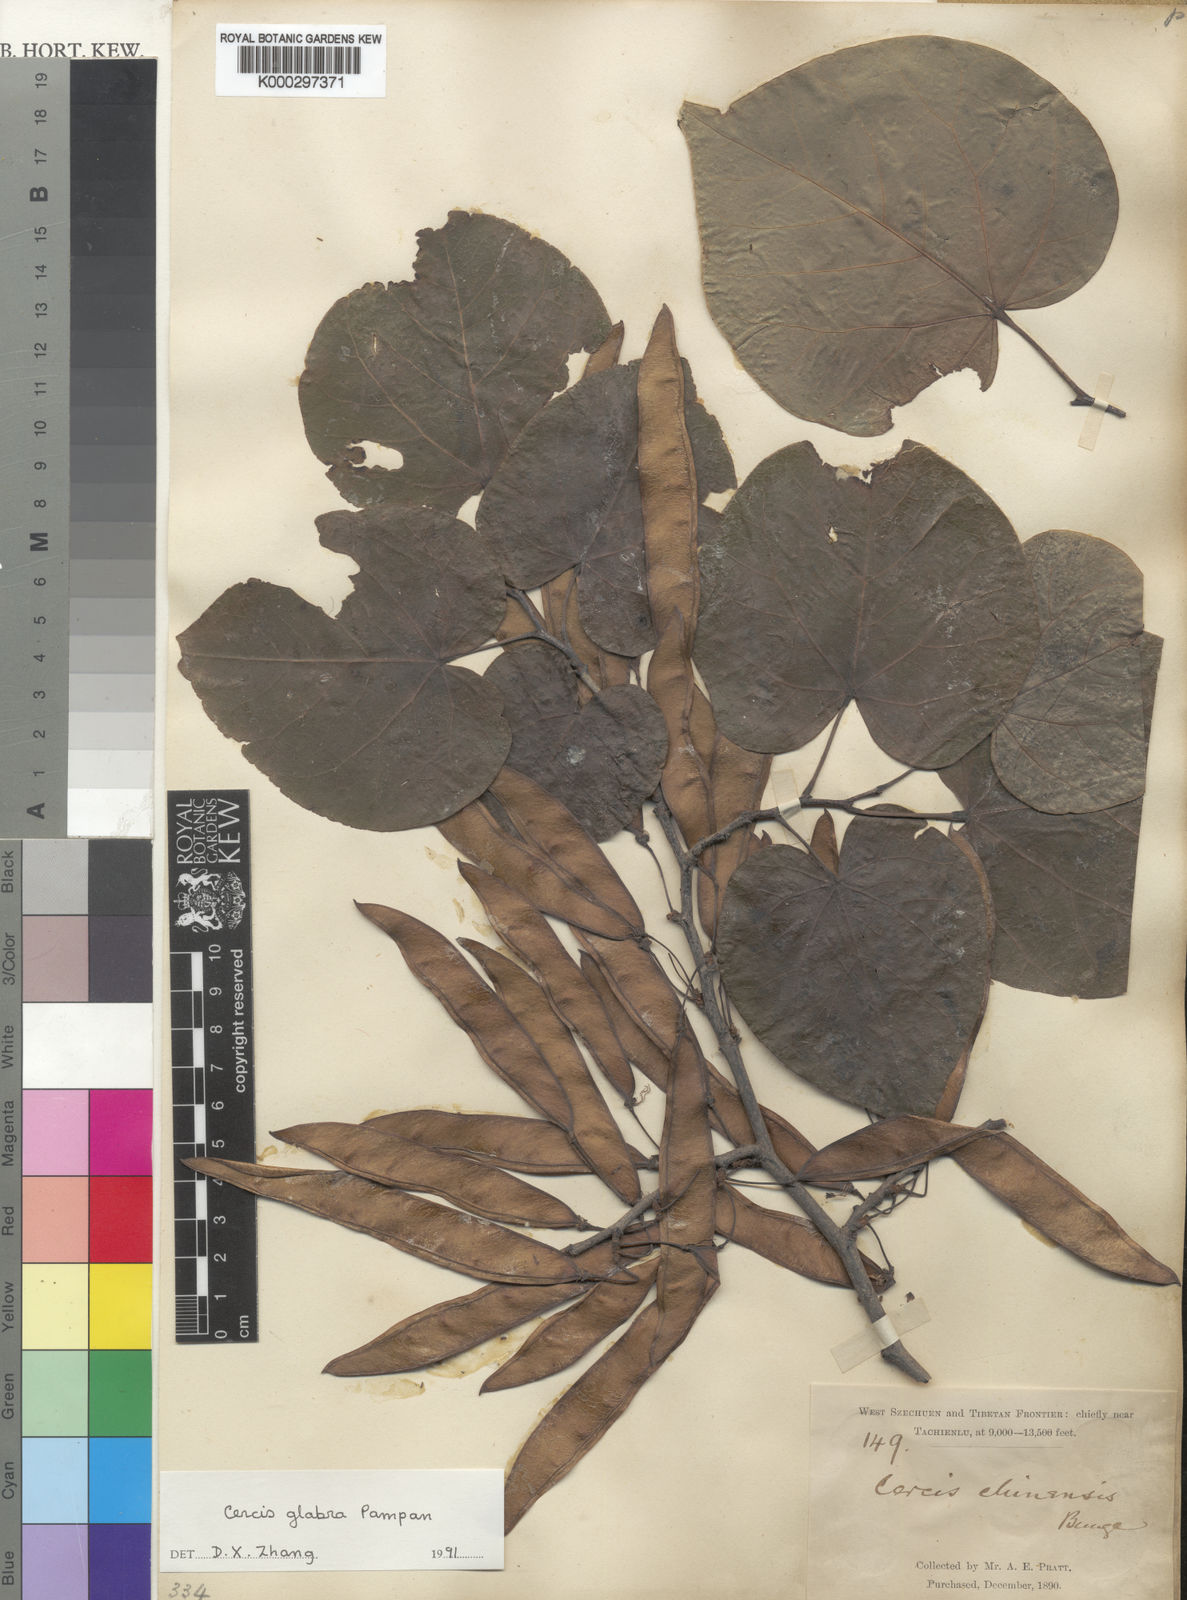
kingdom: Plantae
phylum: Tracheophyta
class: Magnoliopsida
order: Fabales
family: Fabaceae
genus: Cercis
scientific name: Cercis glabra
